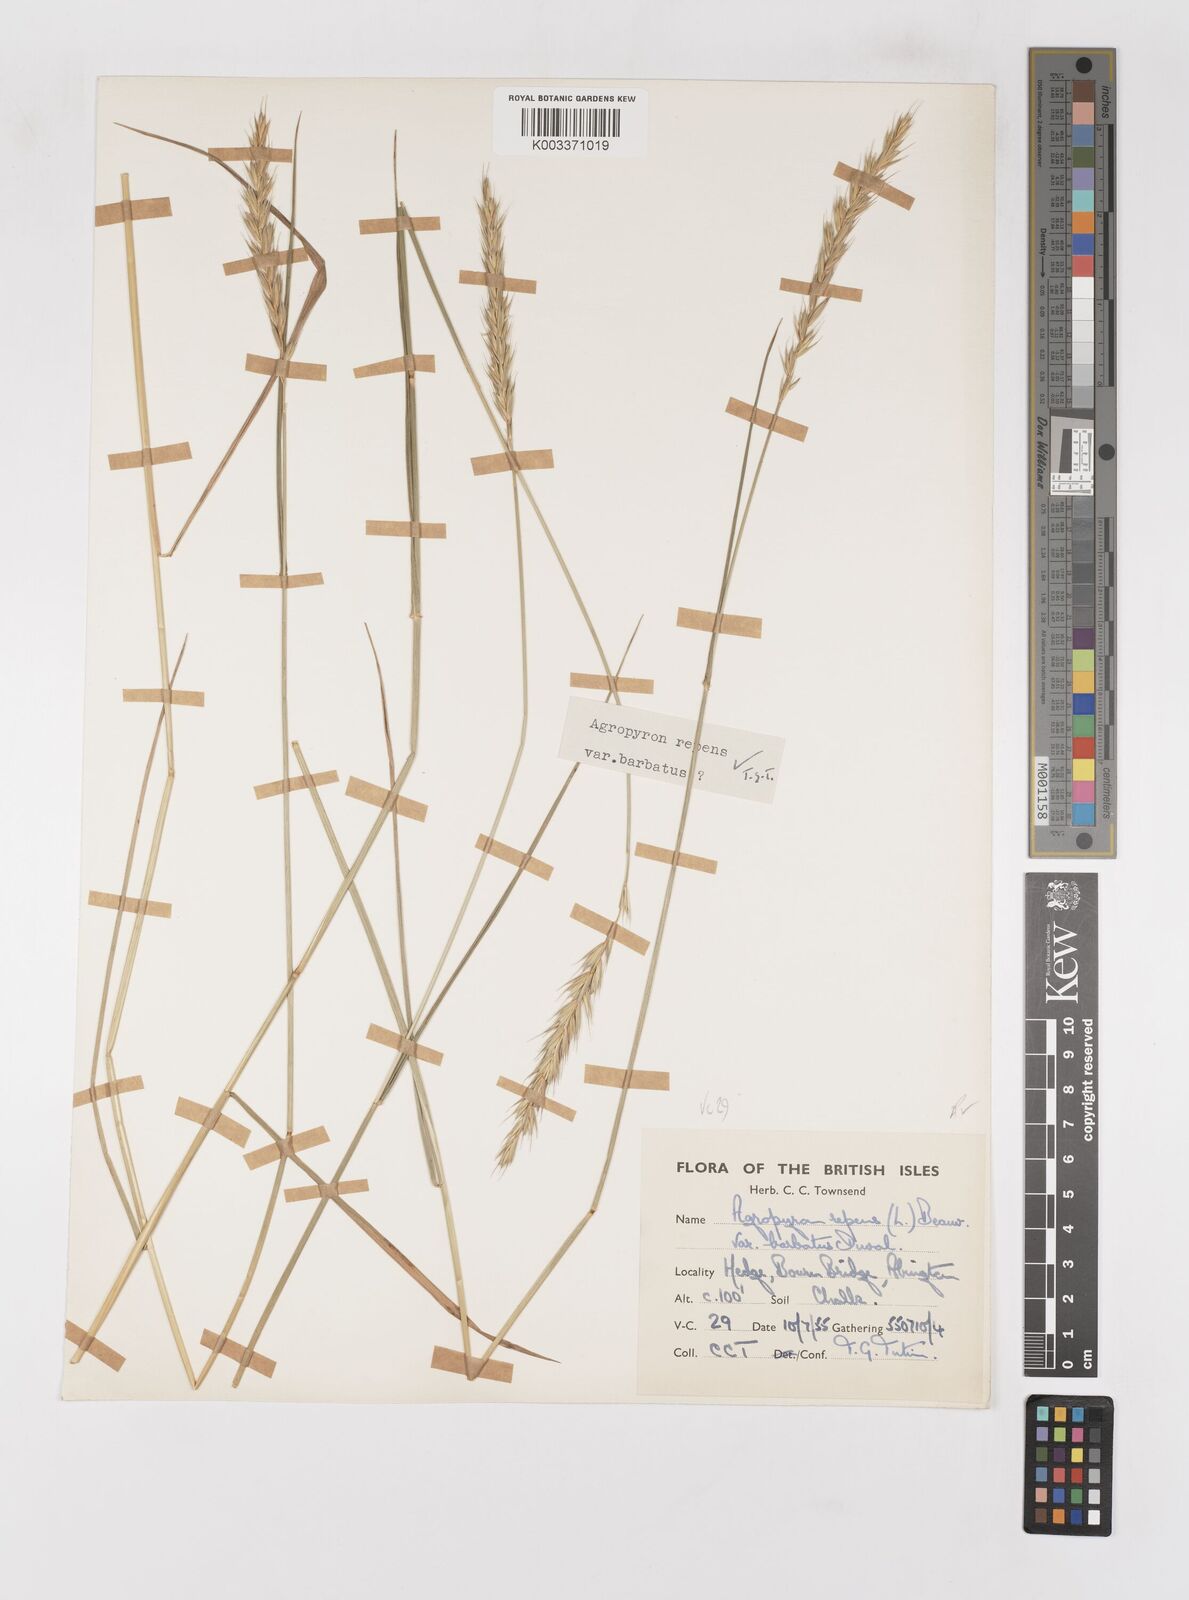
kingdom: Plantae
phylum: Tracheophyta
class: Liliopsida
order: Poales
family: Poaceae
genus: Elymus
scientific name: Elymus repens
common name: Quackgrass
